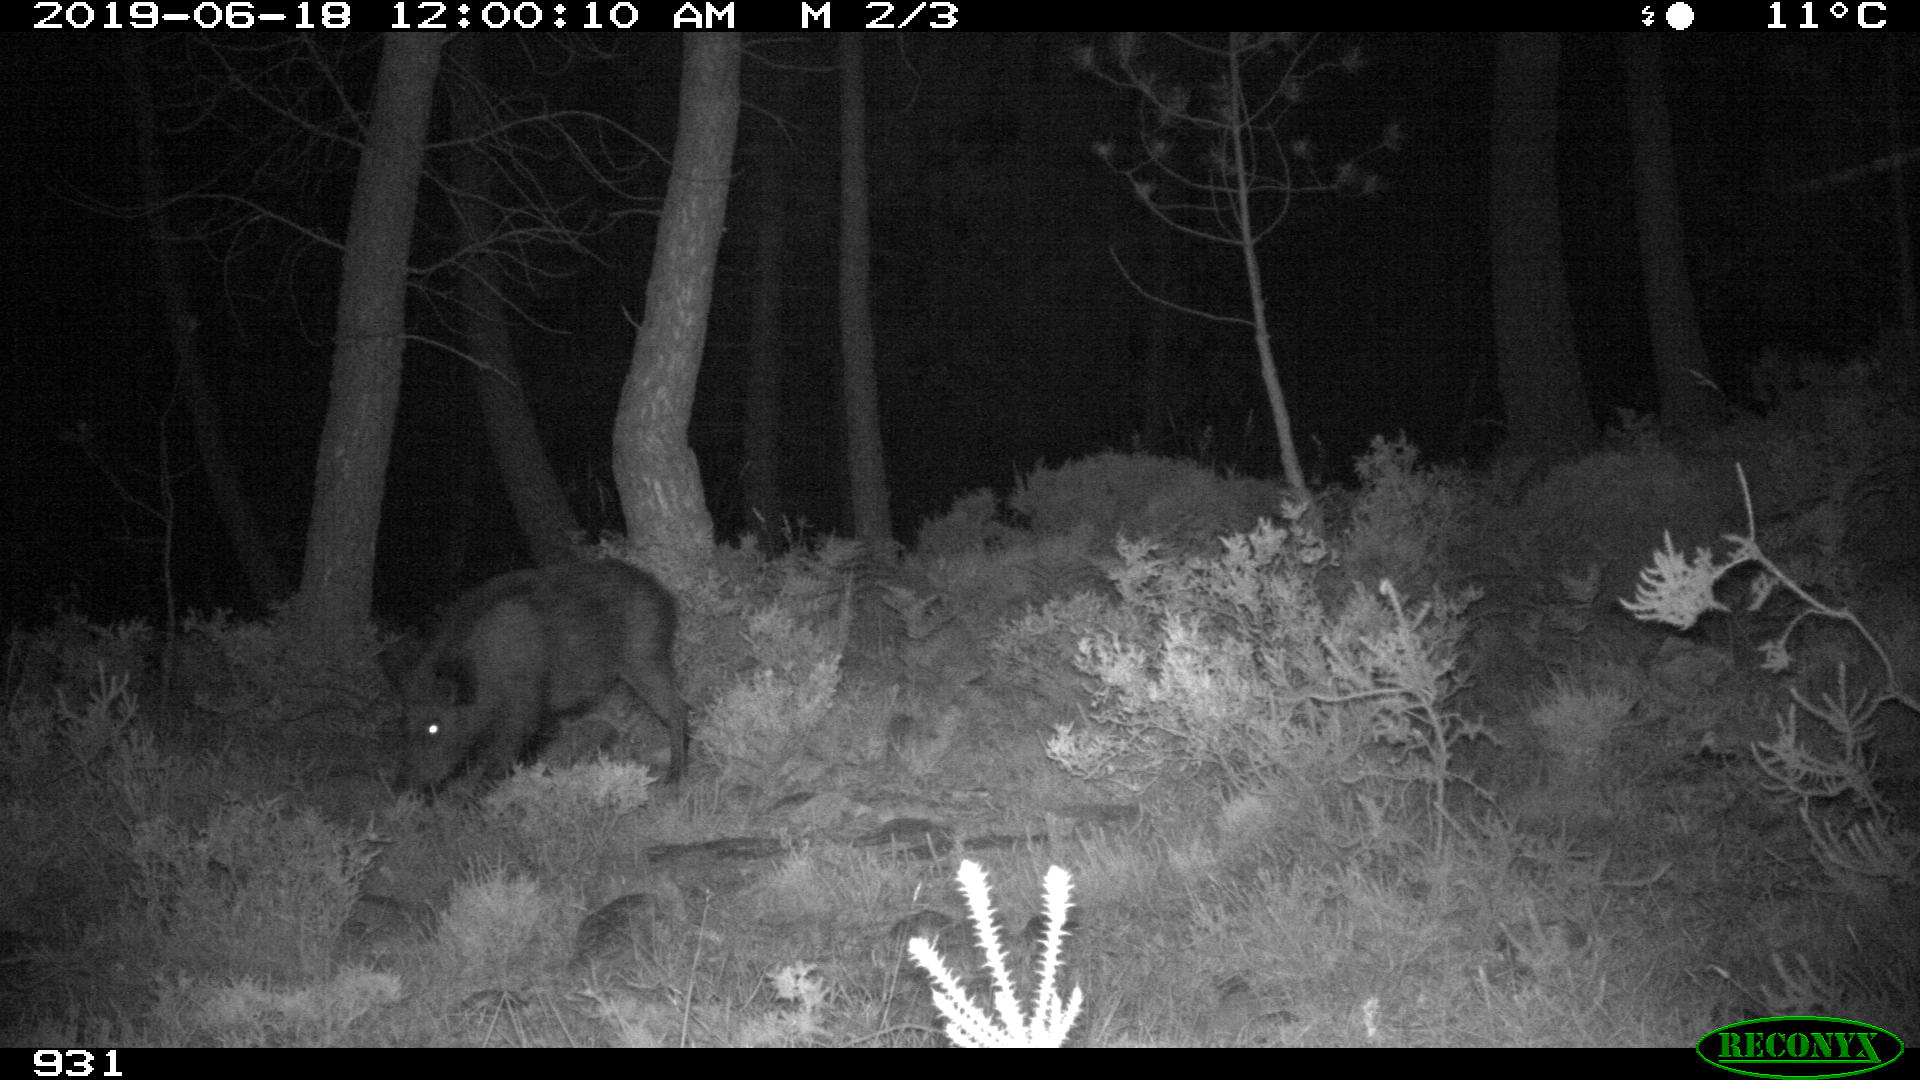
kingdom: Animalia
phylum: Chordata
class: Mammalia
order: Artiodactyla
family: Suidae
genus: Sus
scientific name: Sus scrofa
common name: Wild boar
